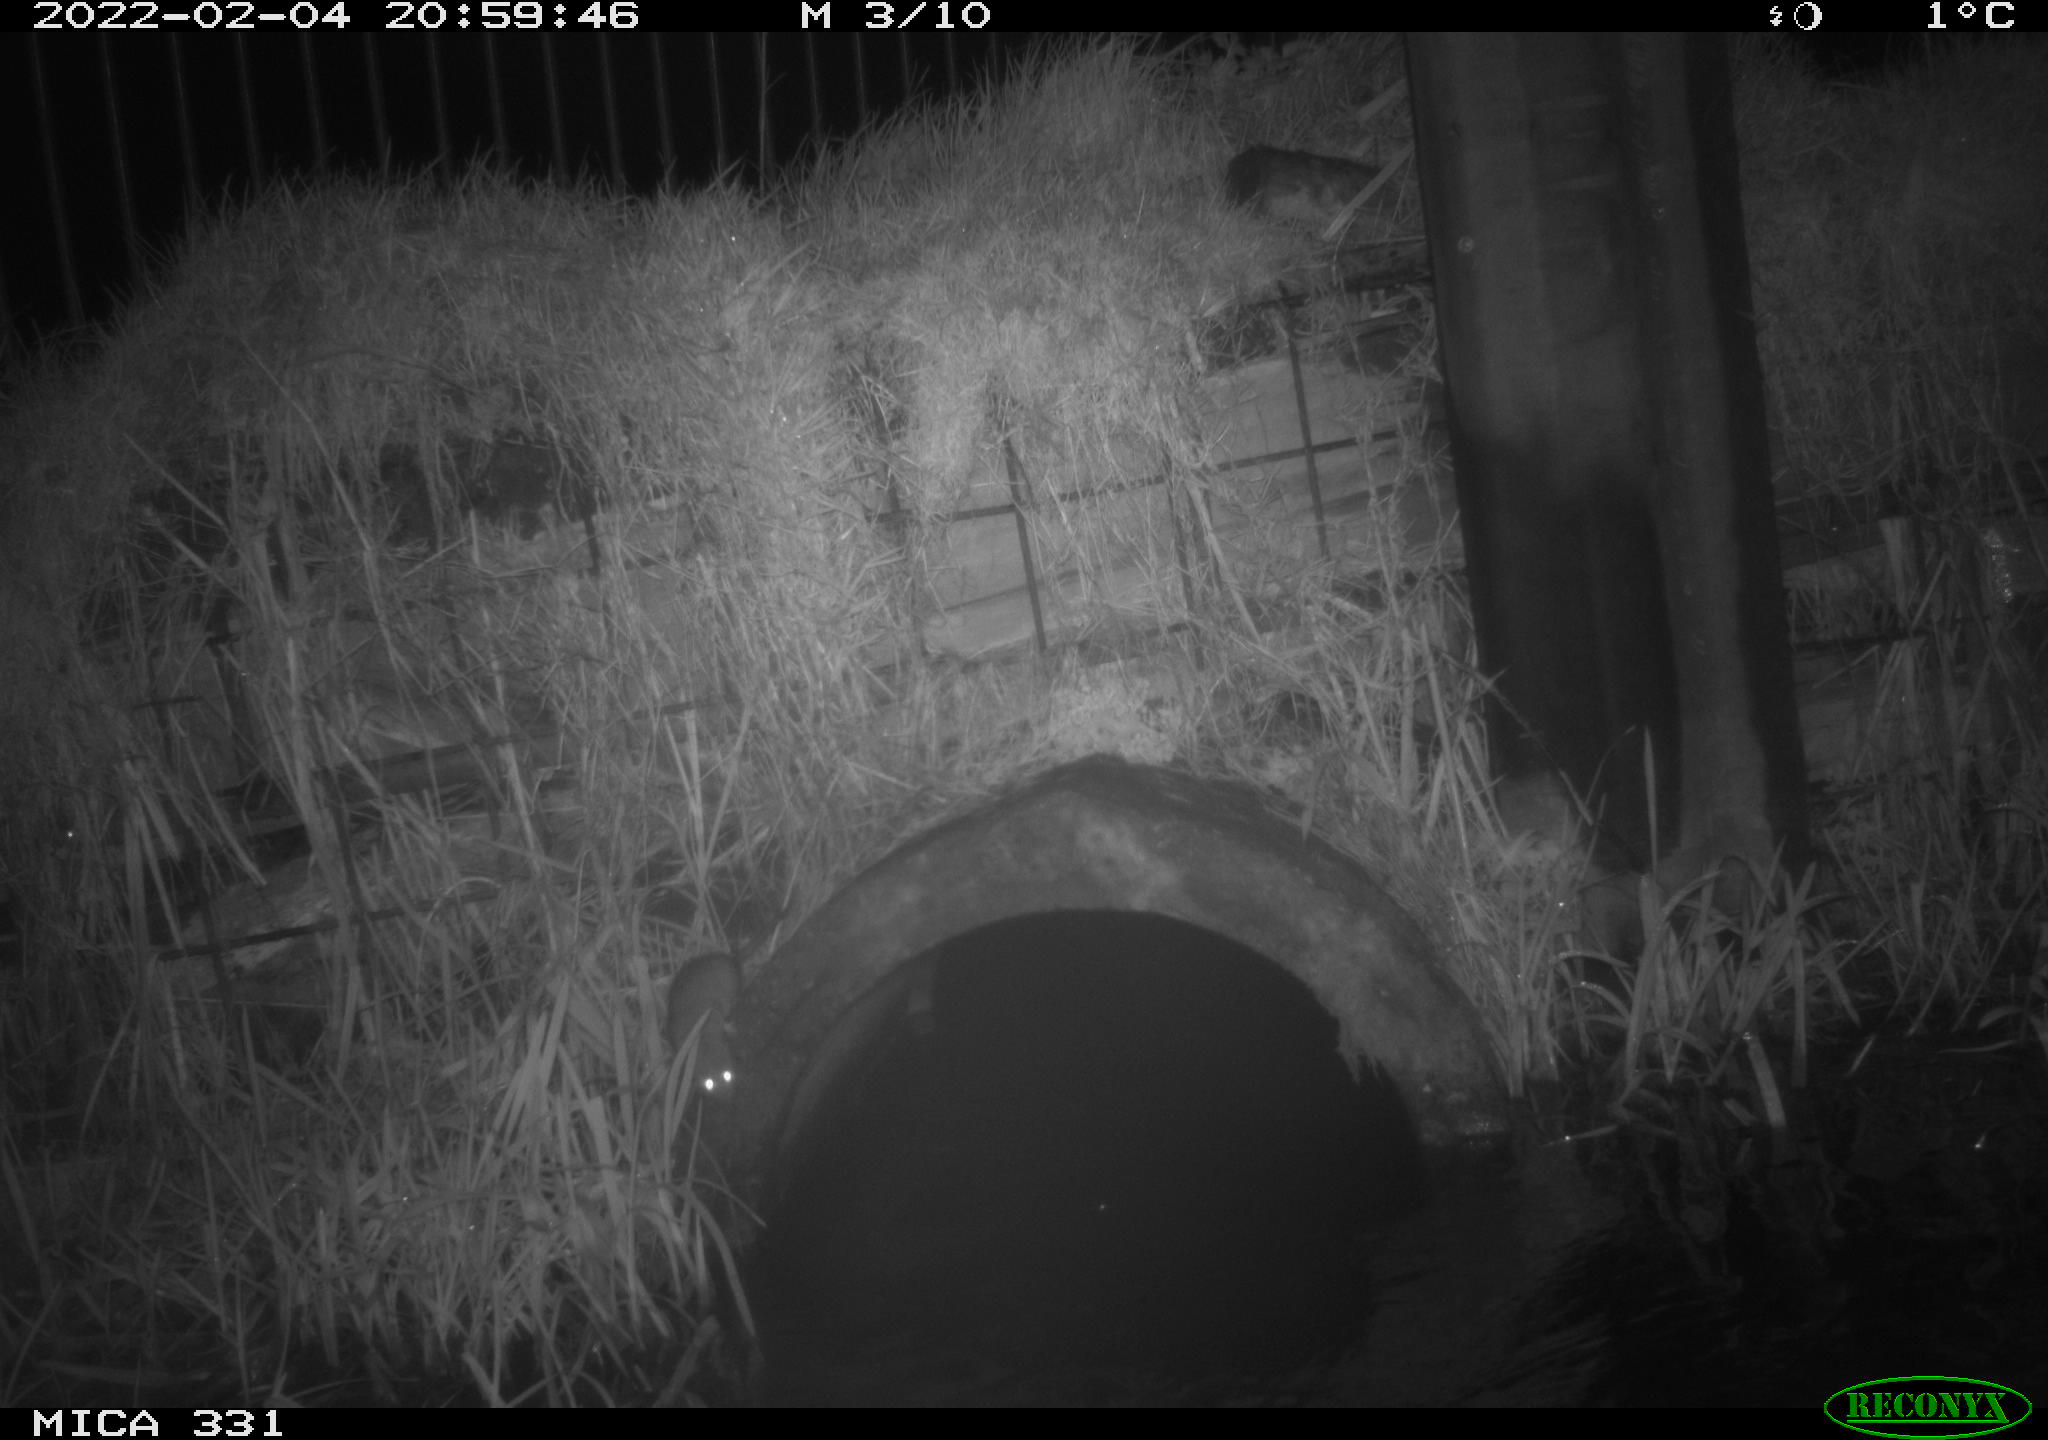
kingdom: Animalia
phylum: Chordata
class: Mammalia
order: Rodentia
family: Muridae
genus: Rattus
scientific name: Rattus norvegicus
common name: Brown rat
